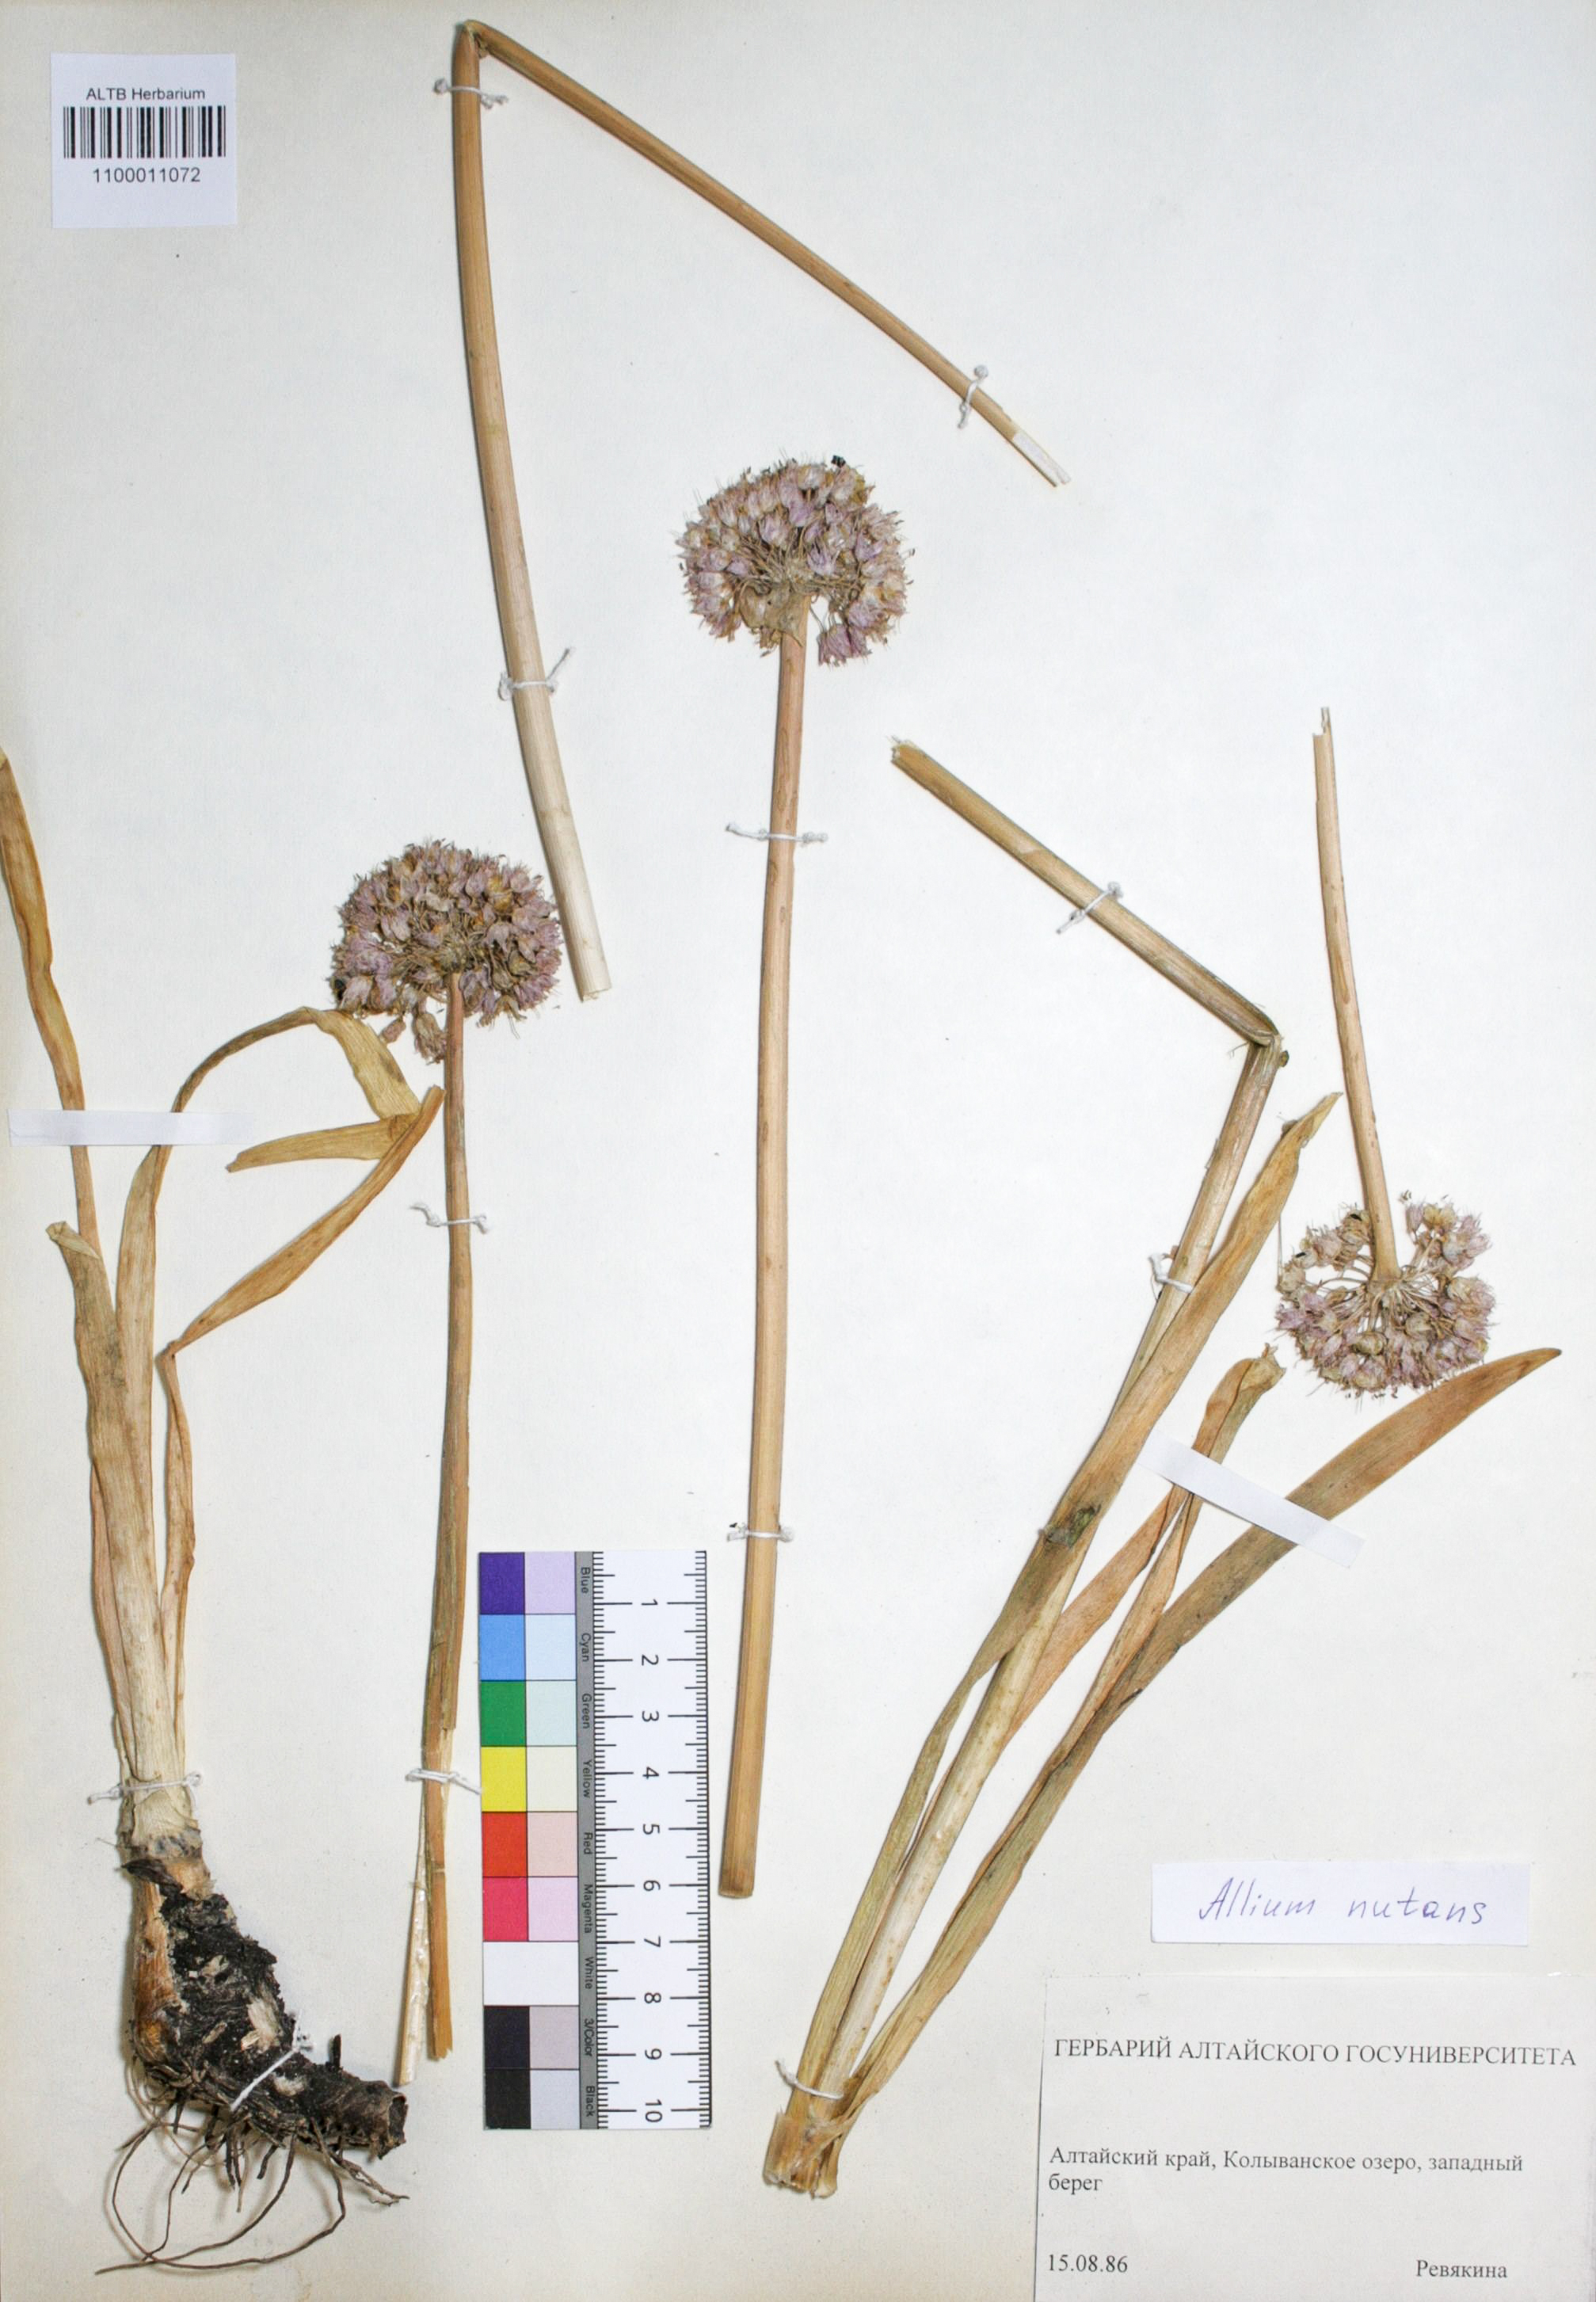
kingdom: Plantae
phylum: Tracheophyta
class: Liliopsida
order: Asparagales
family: Amaryllidaceae
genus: Allium
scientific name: Allium nutans
